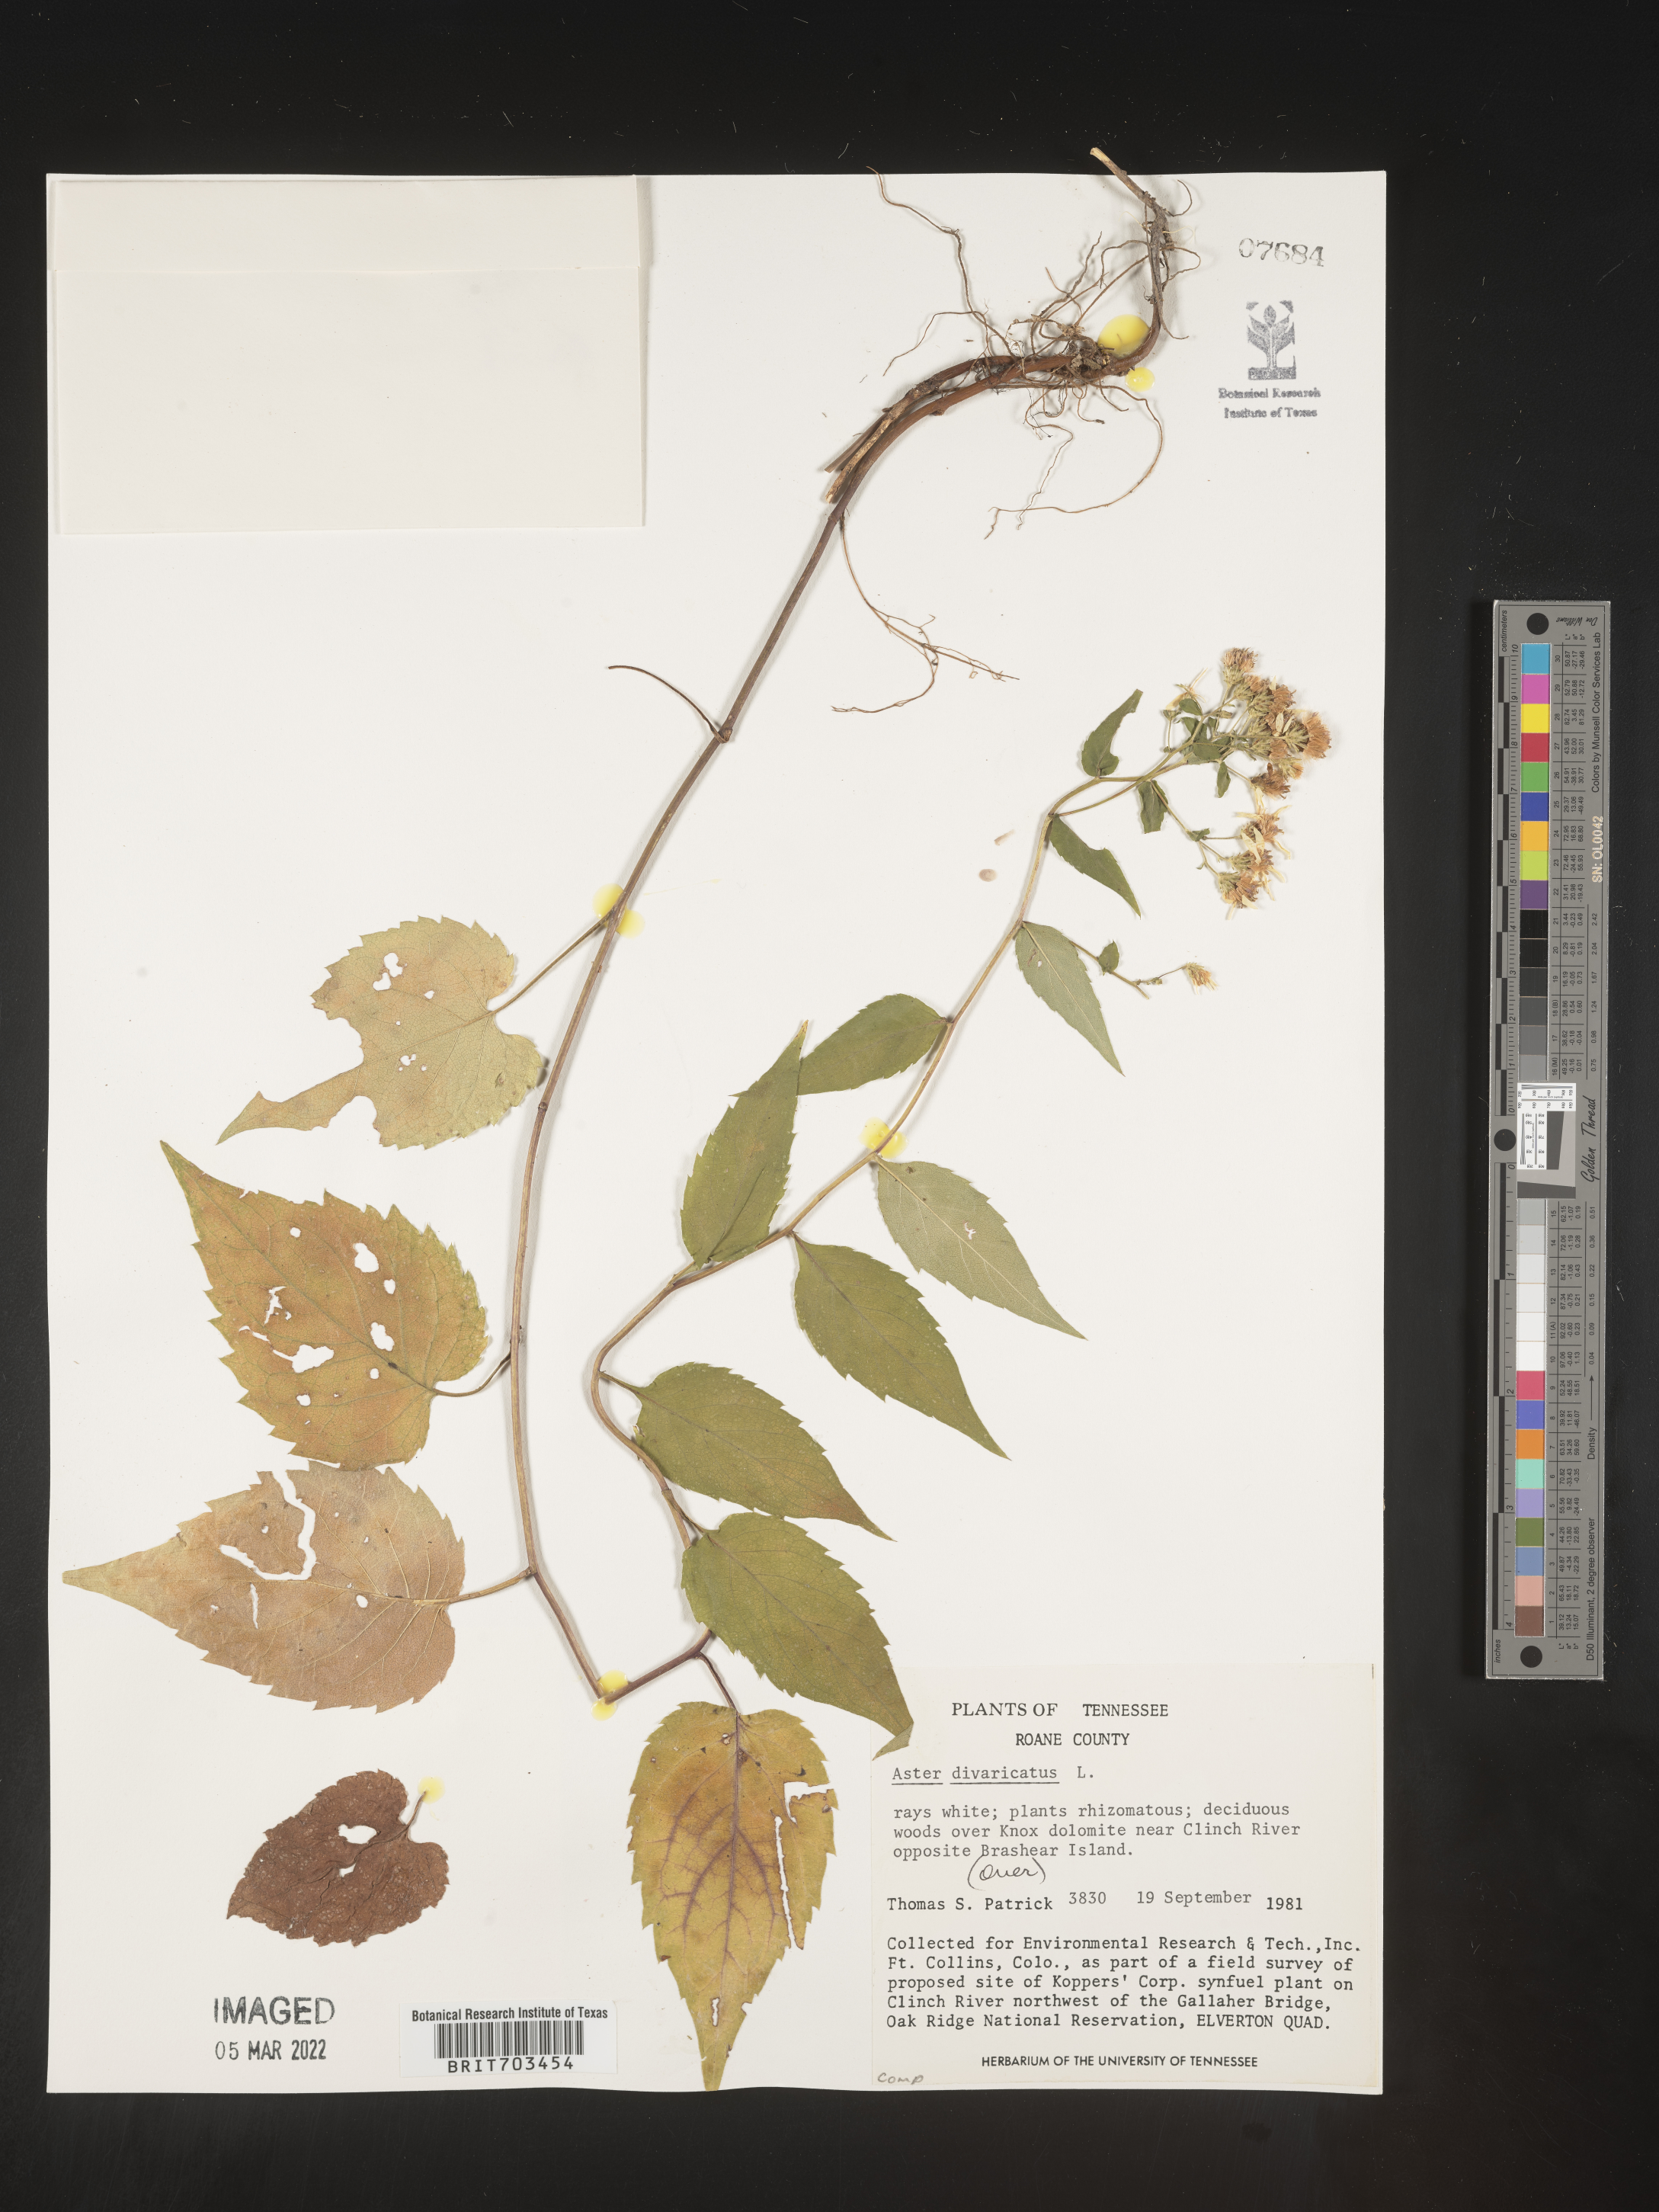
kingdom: Plantae
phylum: Tracheophyta
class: Magnoliopsida
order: Asterales
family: Asteraceae
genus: Eurybia
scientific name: Eurybia divaricata
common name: White wood aster
